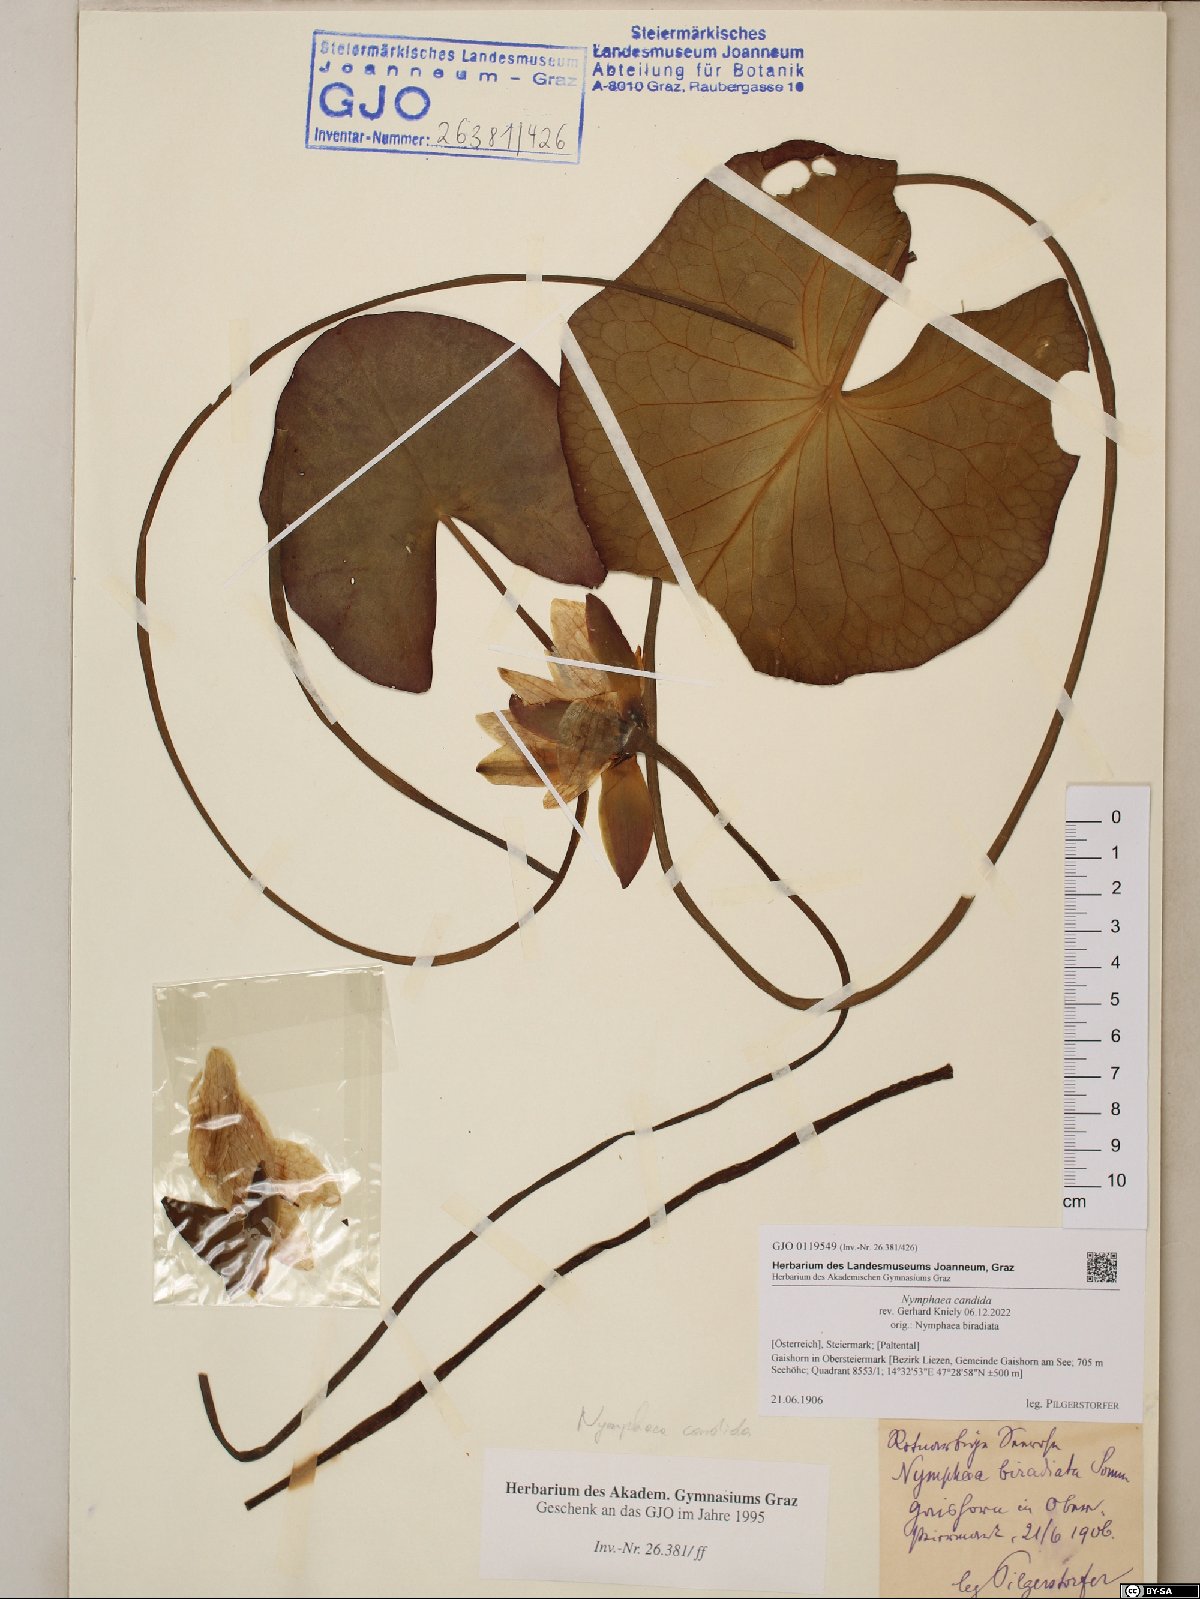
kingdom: Plantae
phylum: Tracheophyta
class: Magnoliopsida
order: Nymphaeales
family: Nymphaeaceae
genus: Nymphaea
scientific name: Nymphaea candida
